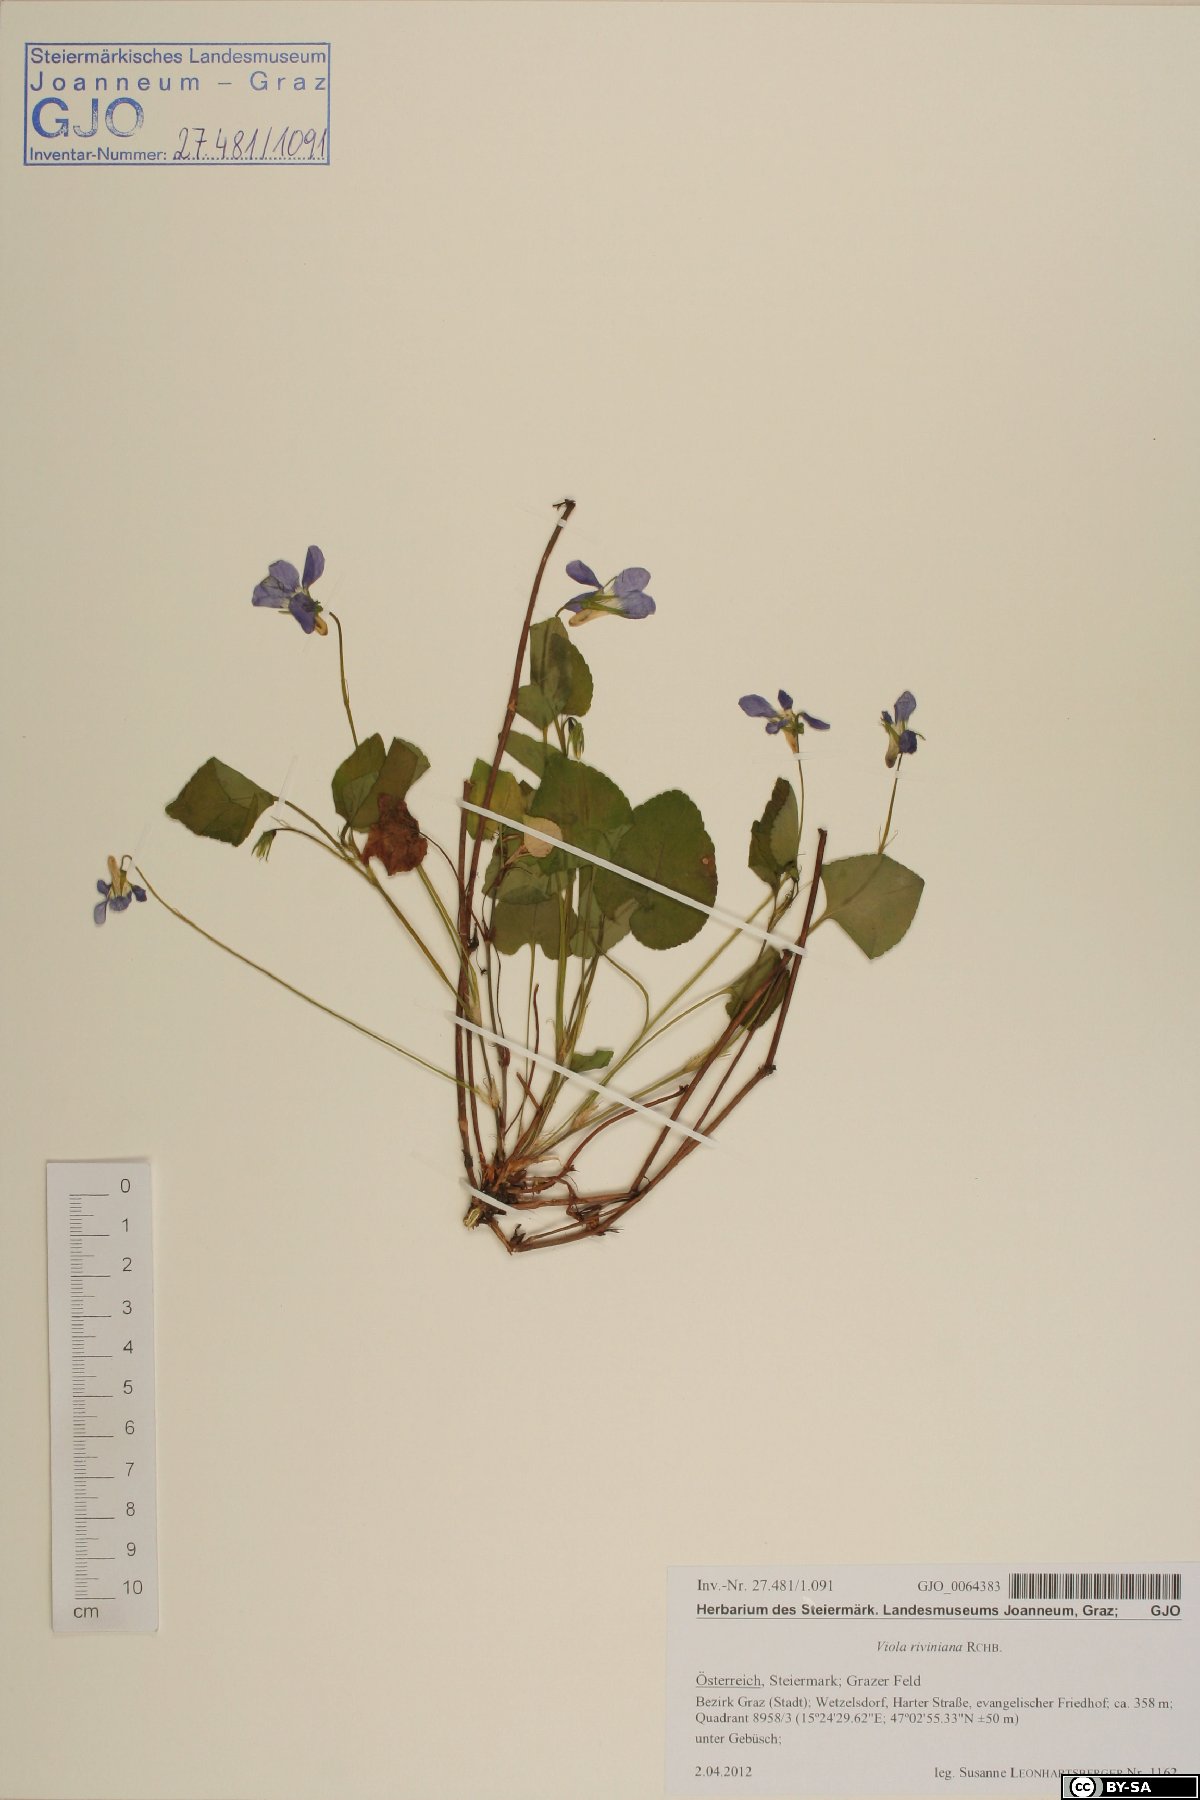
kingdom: Plantae
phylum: Tracheophyta
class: Magnoliopsida
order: Malpighiales
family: Violaceae
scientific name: Violaceae
